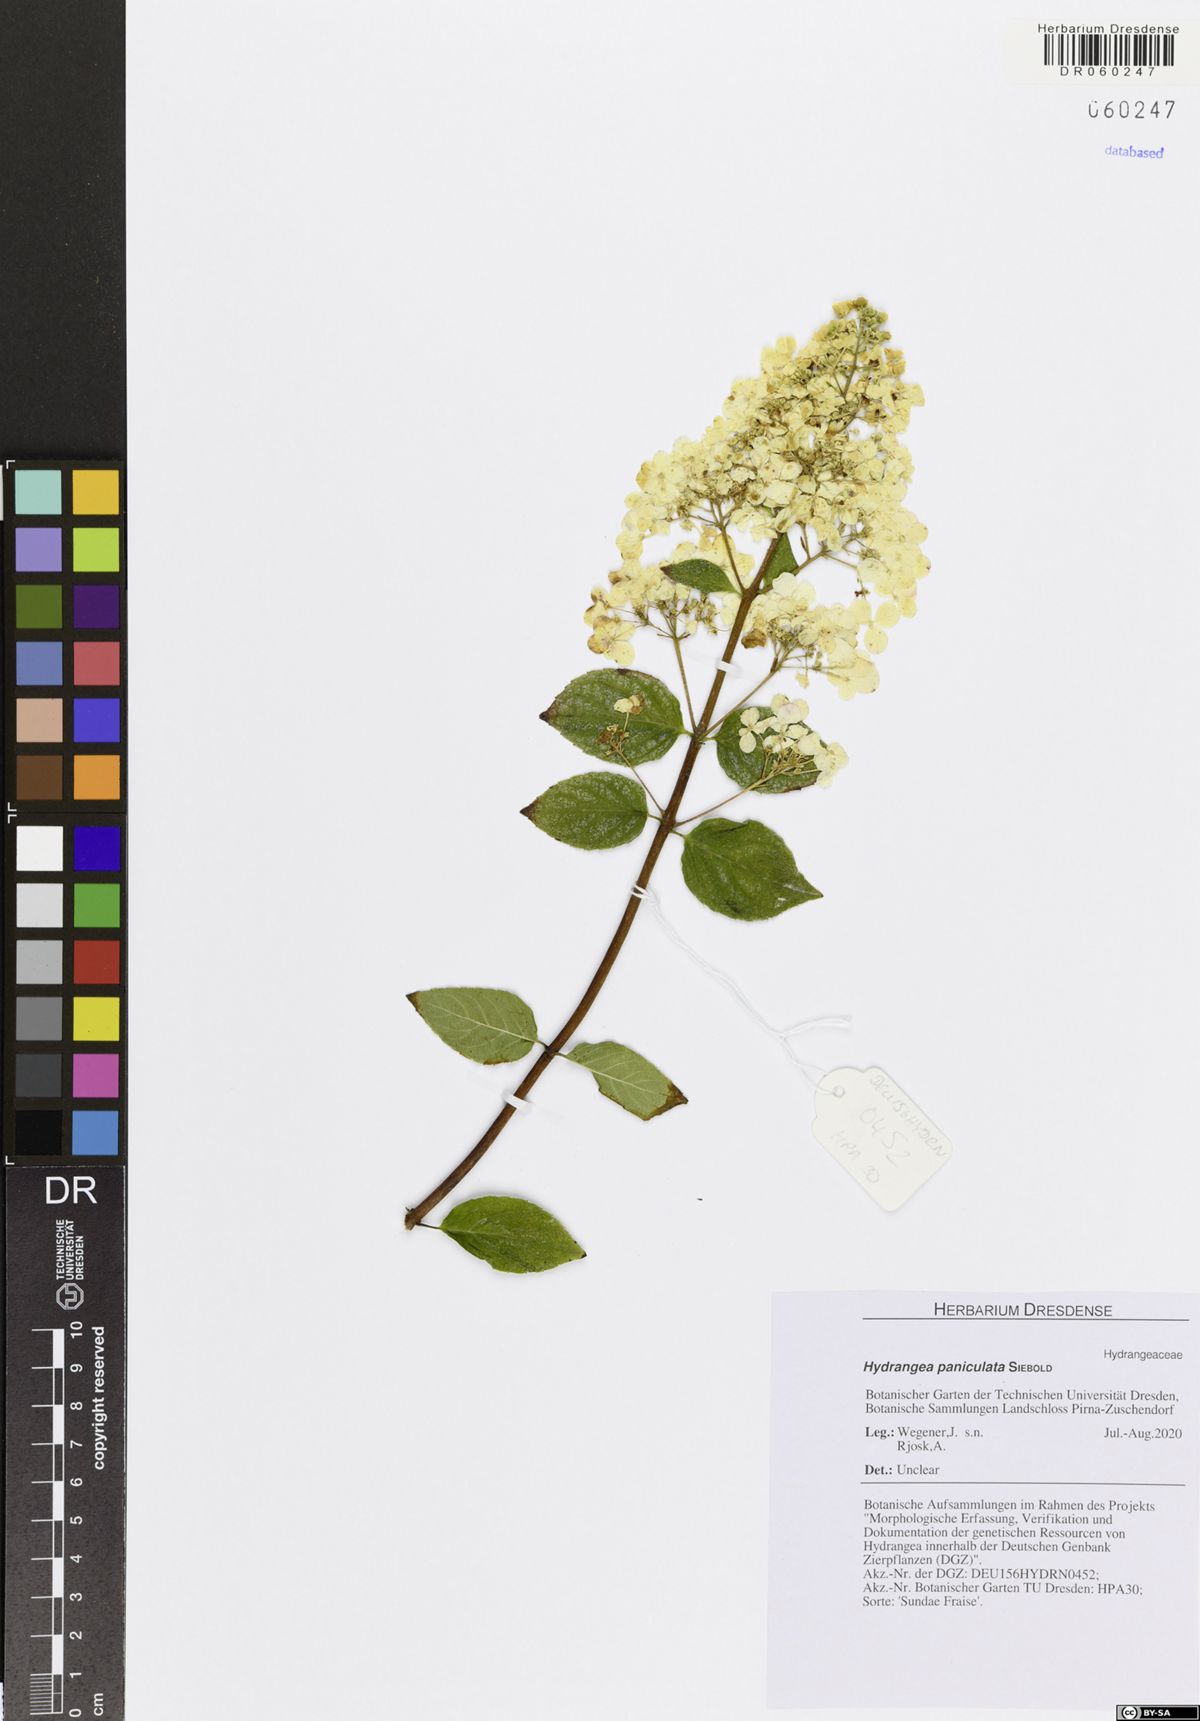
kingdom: Plantae
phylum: Tracheophyta
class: Magnoliopsida
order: Cornales
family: Hydrangeaceae
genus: Hydrangea
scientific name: Hydrangea paniculata
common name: Panicled hydrangea
